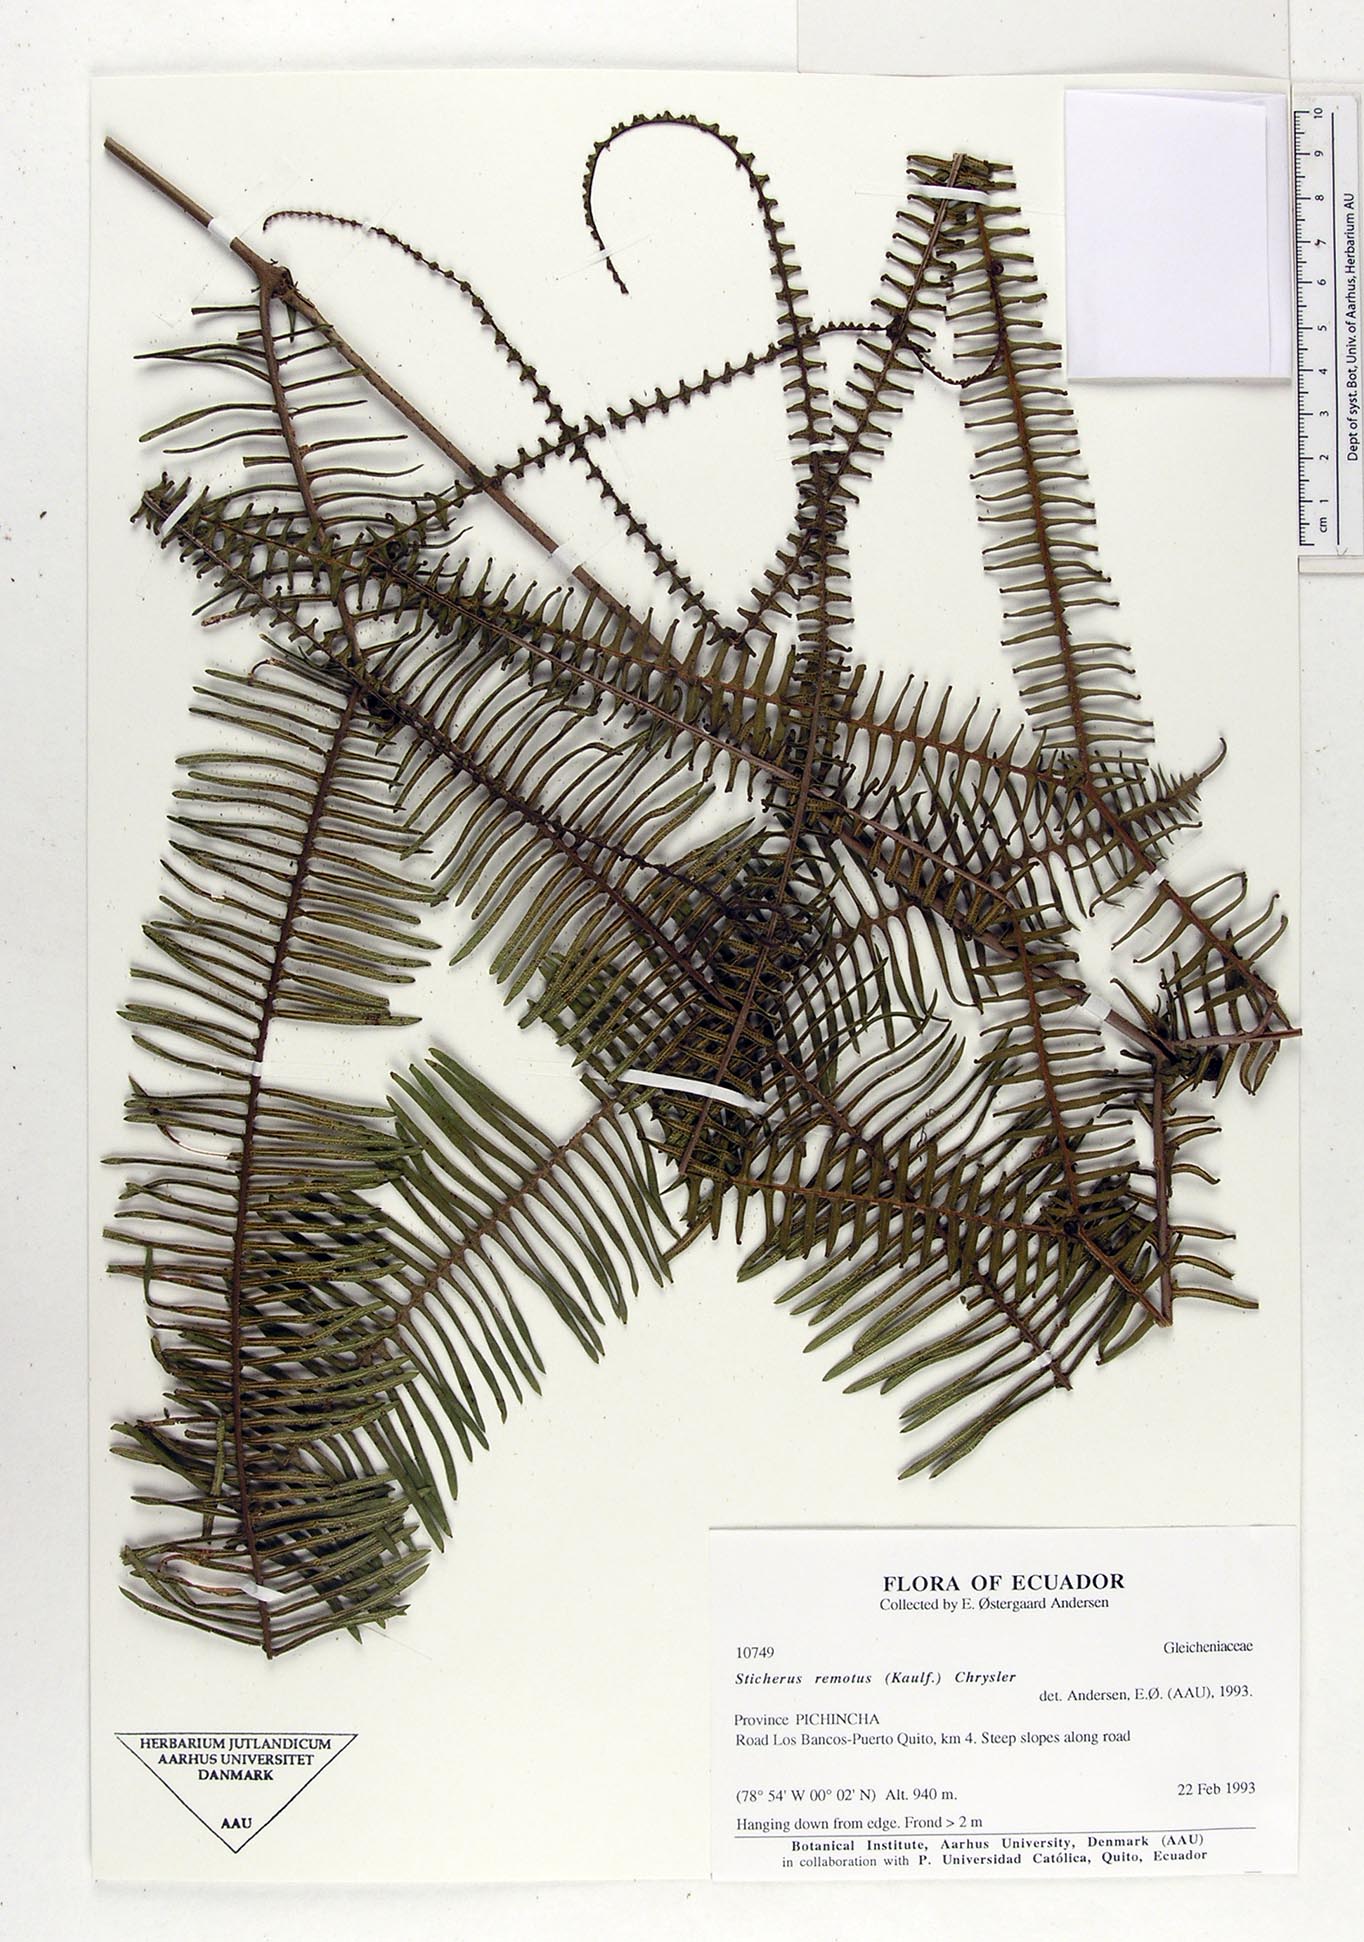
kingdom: Plantae
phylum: Tracheophyta
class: Polypodiopsida
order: Gleicheniales
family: Gleicheniaceae
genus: Sticherus
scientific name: Sticherus remotus
